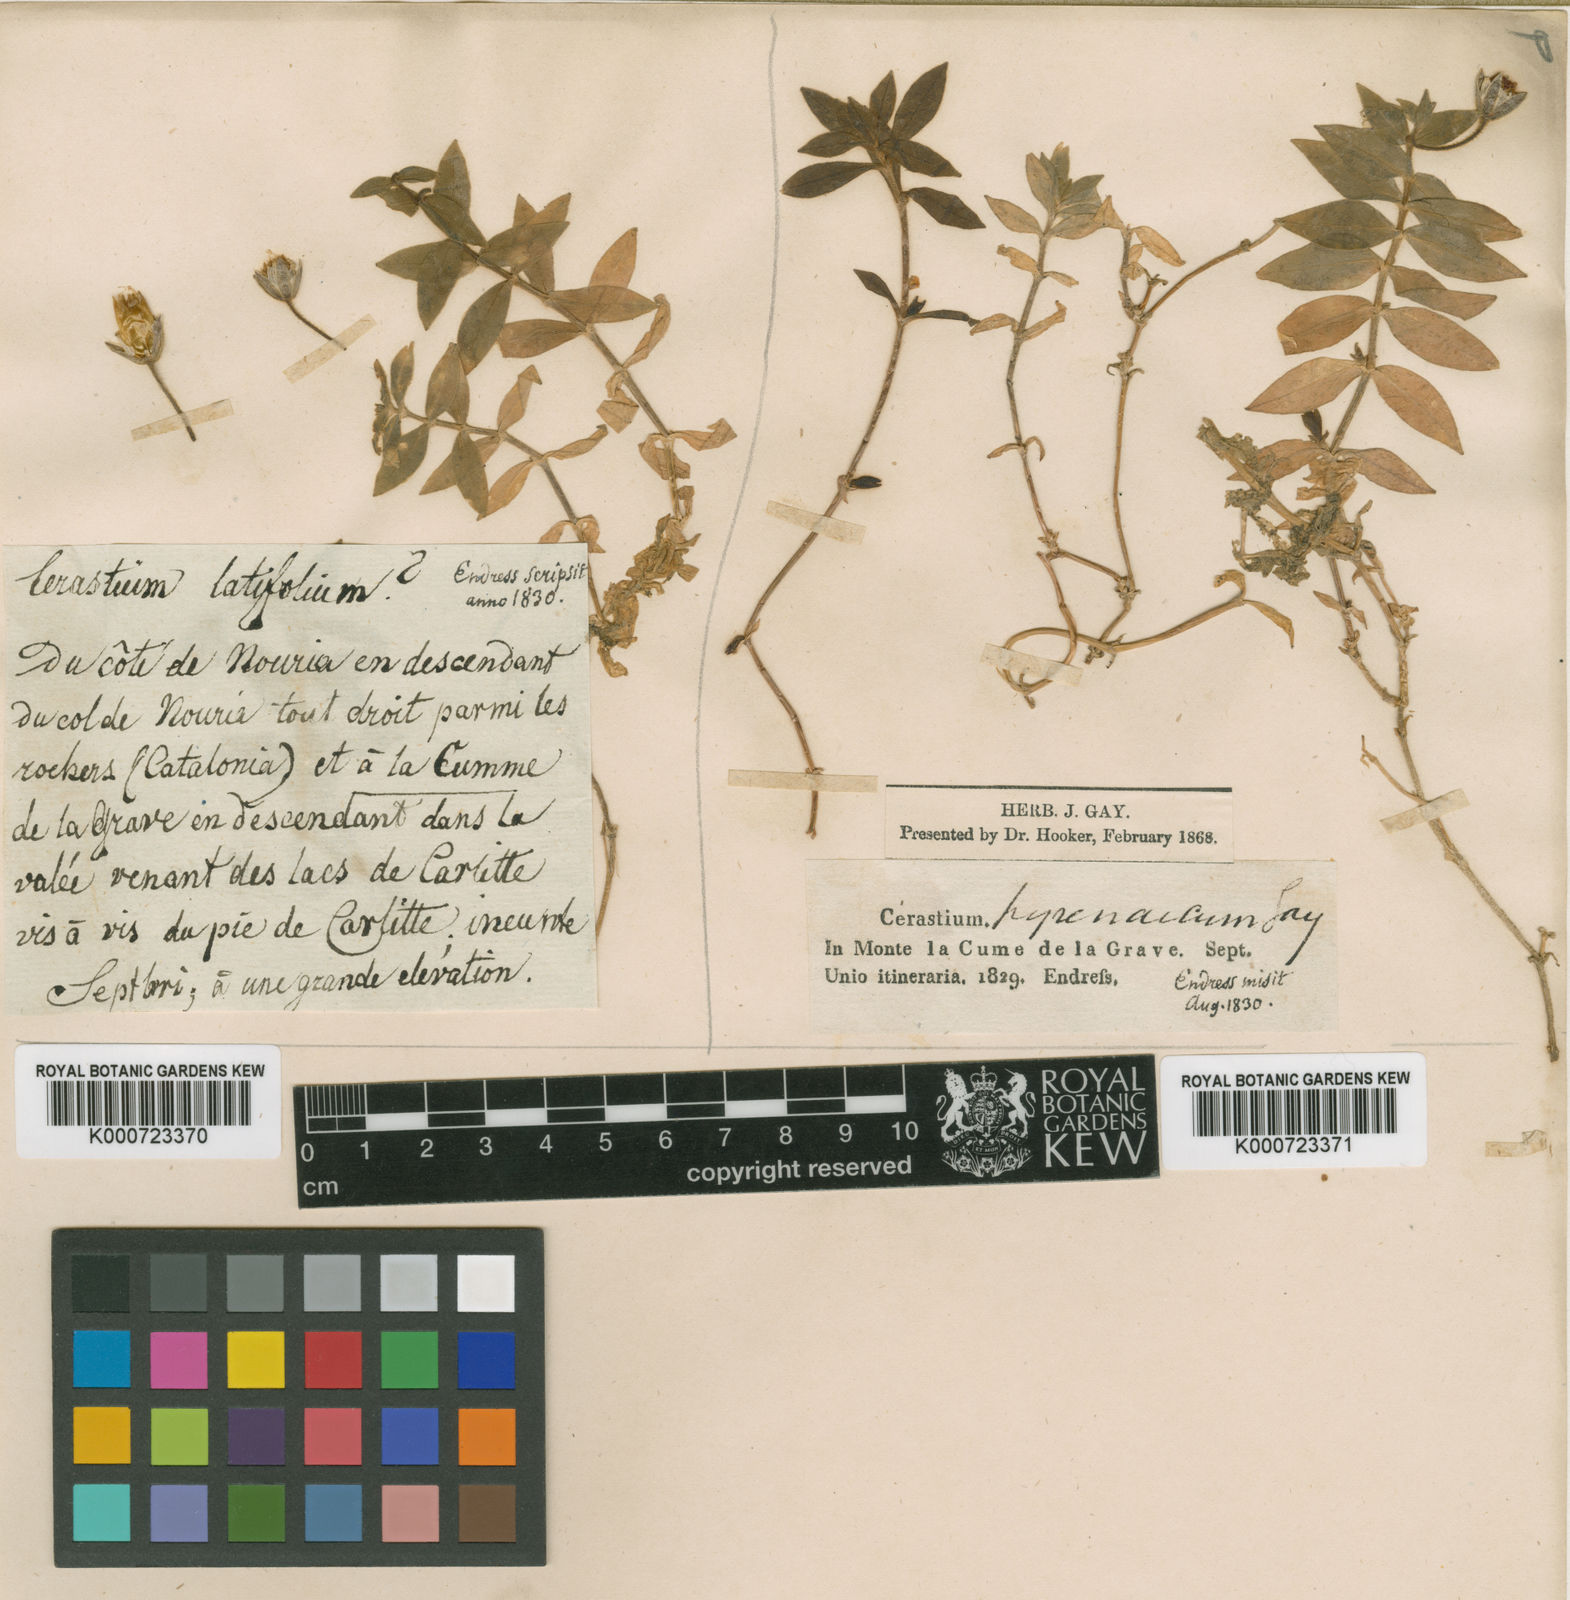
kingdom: Plantae
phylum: Tracheophyta
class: Magnoliopsida
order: Caryophyllales
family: Caryophyllaceae
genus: Cerastium
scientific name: Cerastium pyrenaicum
